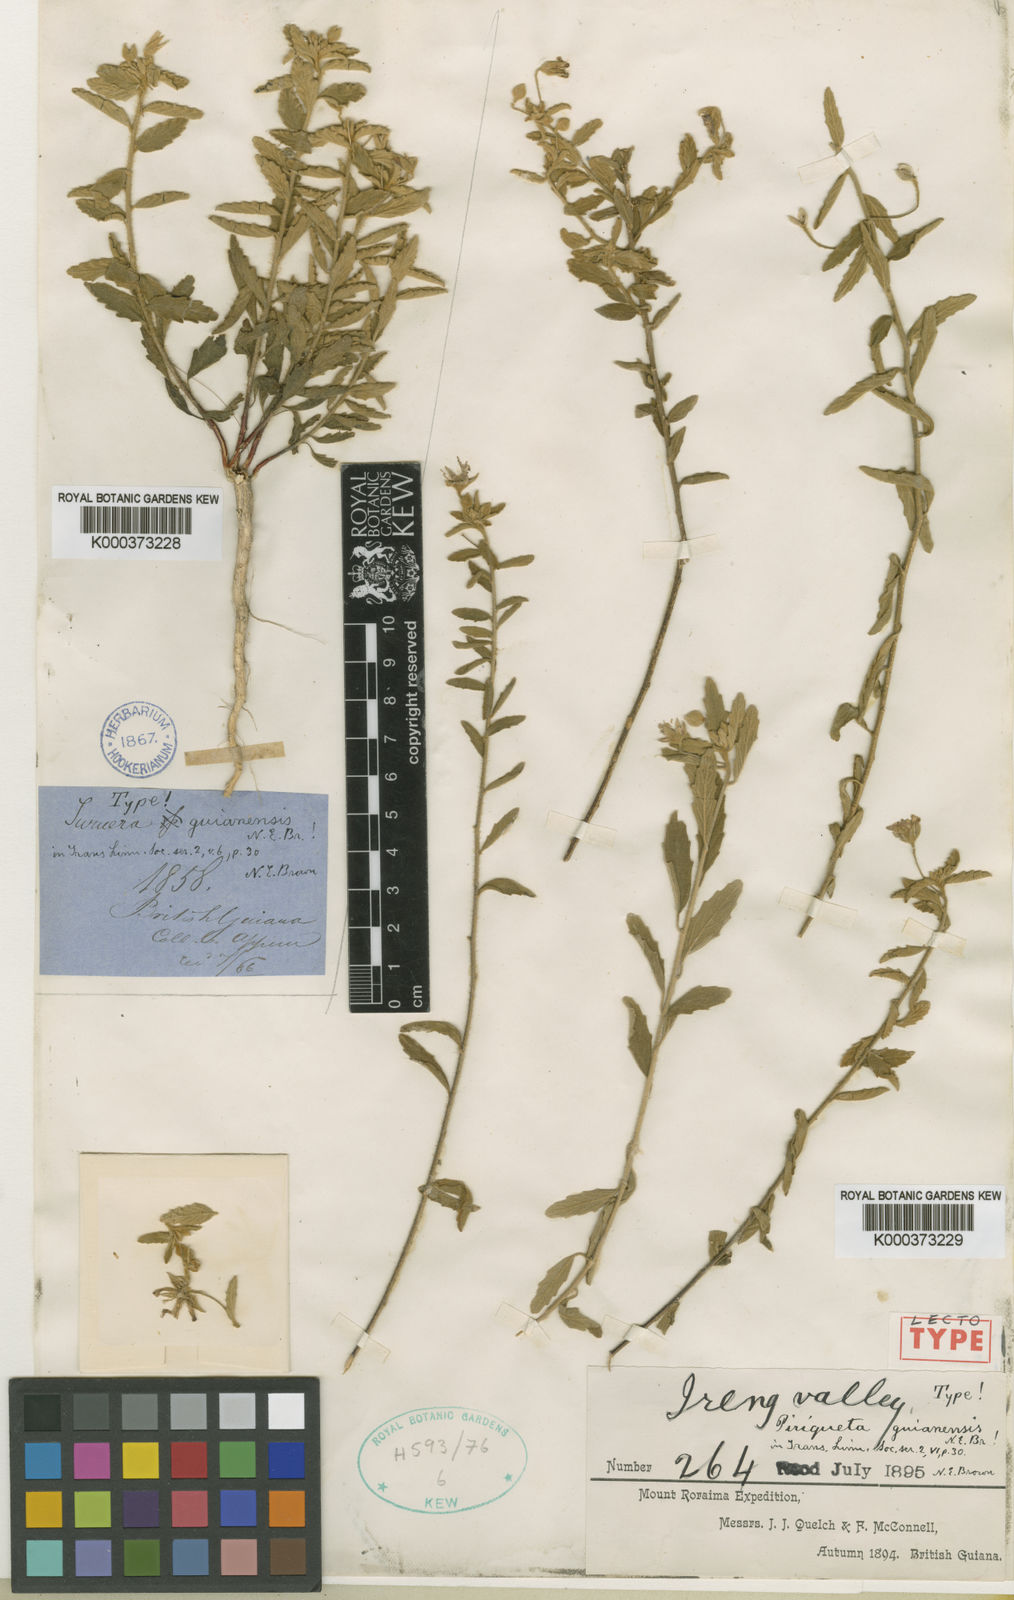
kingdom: Plantae
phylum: Tracheophyta
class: Magnoliopsida
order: Malpighiales
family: Turneraceae
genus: Piriqueta
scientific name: Piriqueta guianensis
